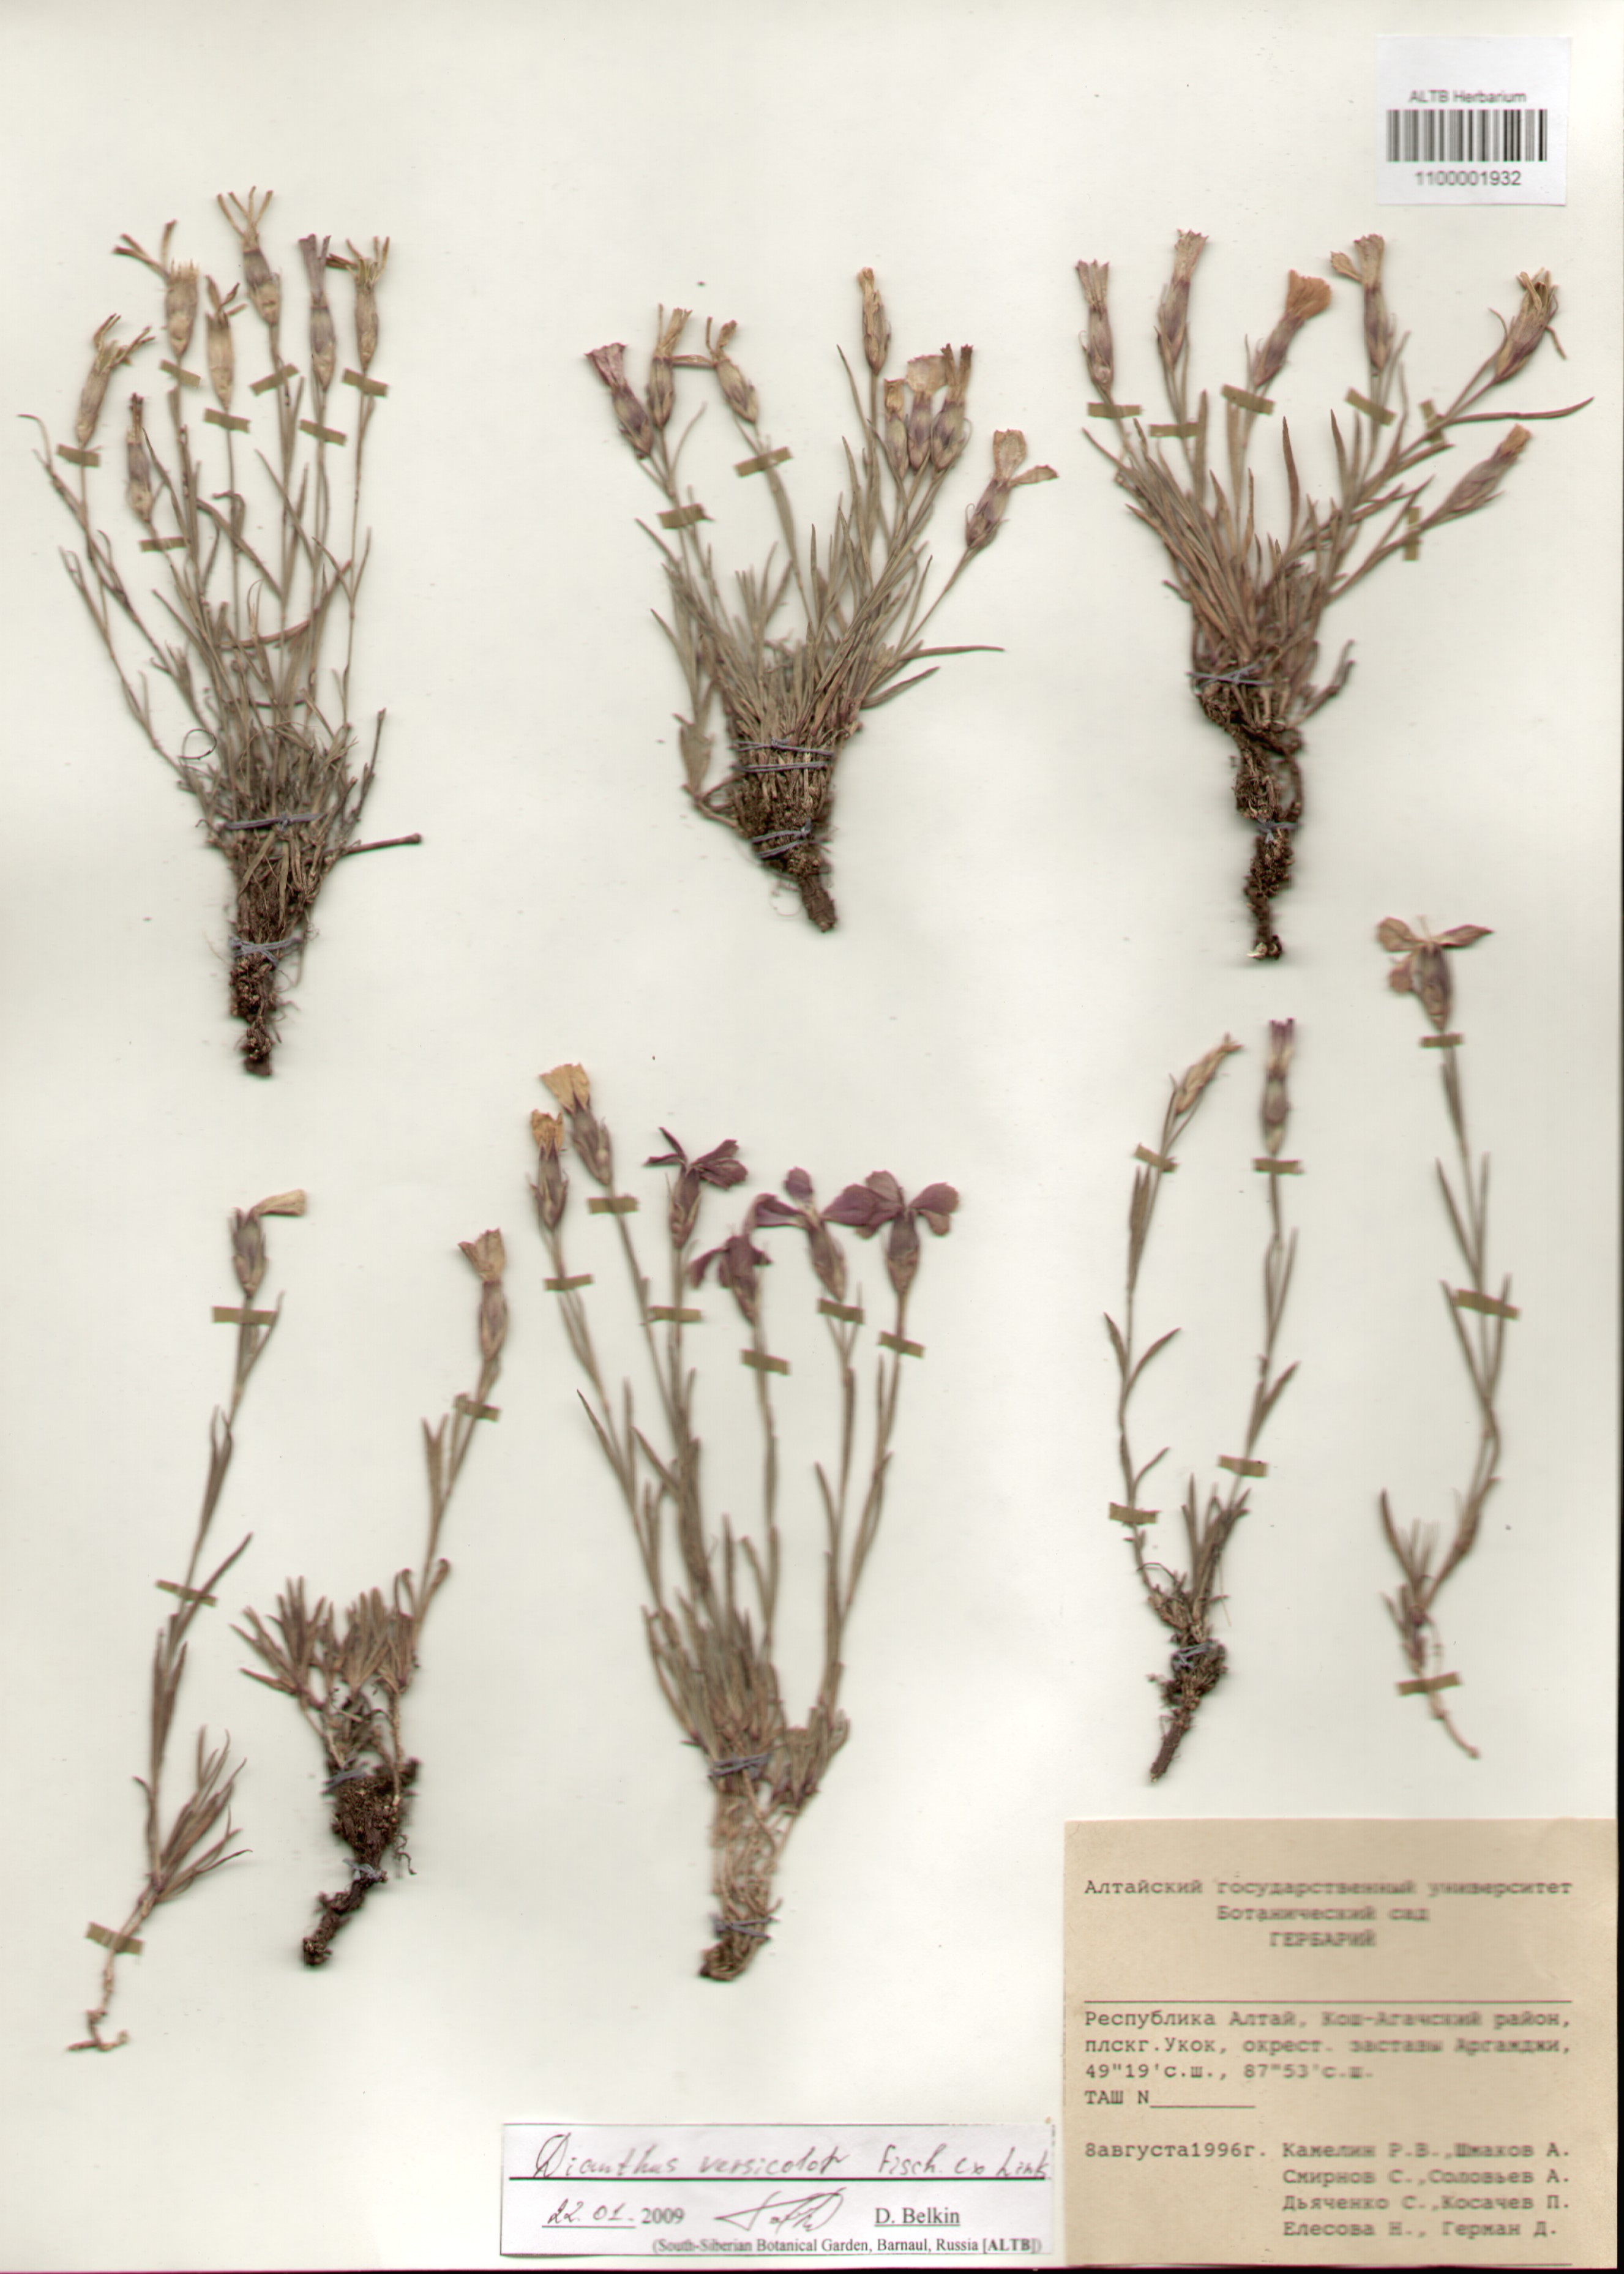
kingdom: Plantae
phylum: Tracheophyta
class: Magnoliopsida
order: Caryophyllales
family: Caryophyllaceae
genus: Dianthus
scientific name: Dianthus chinensis
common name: Rainbow pink
